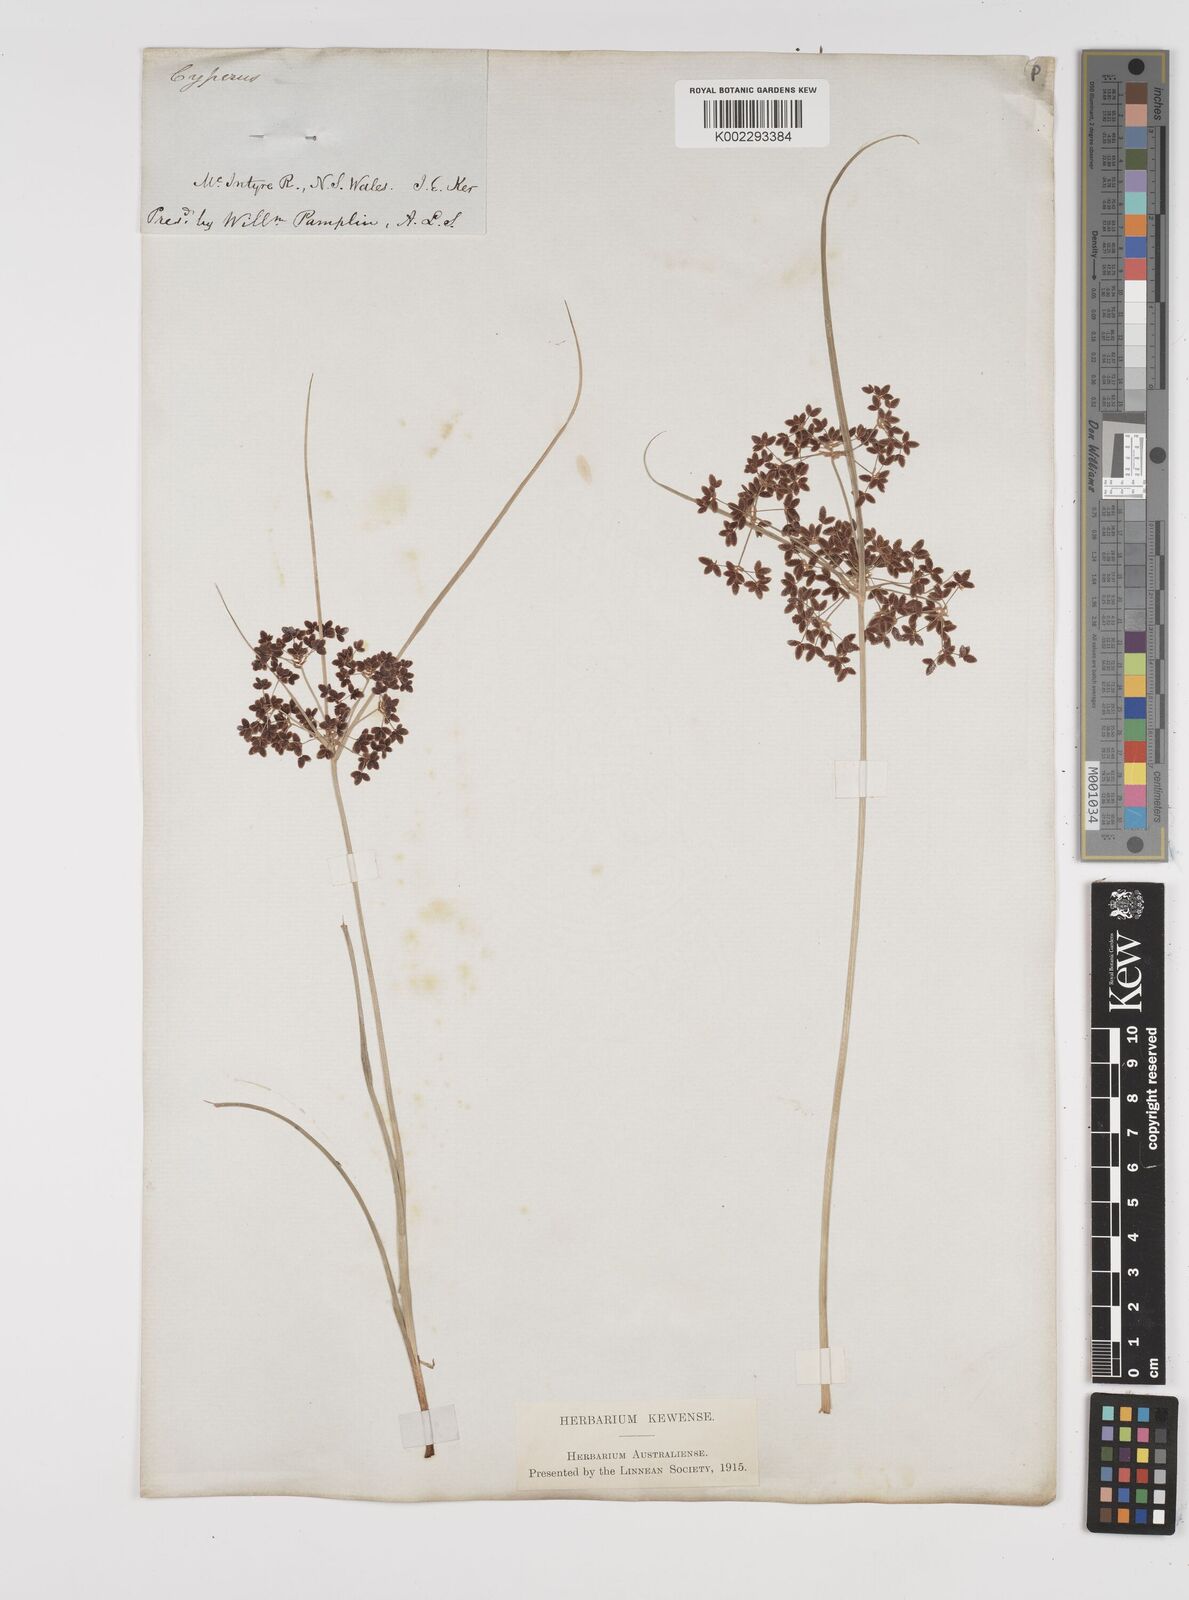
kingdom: Plantae
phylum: Tracheophyta
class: Liliopsida
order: Poales
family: Cyperaceae
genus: Cyperus
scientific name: Cyperus concinnus
